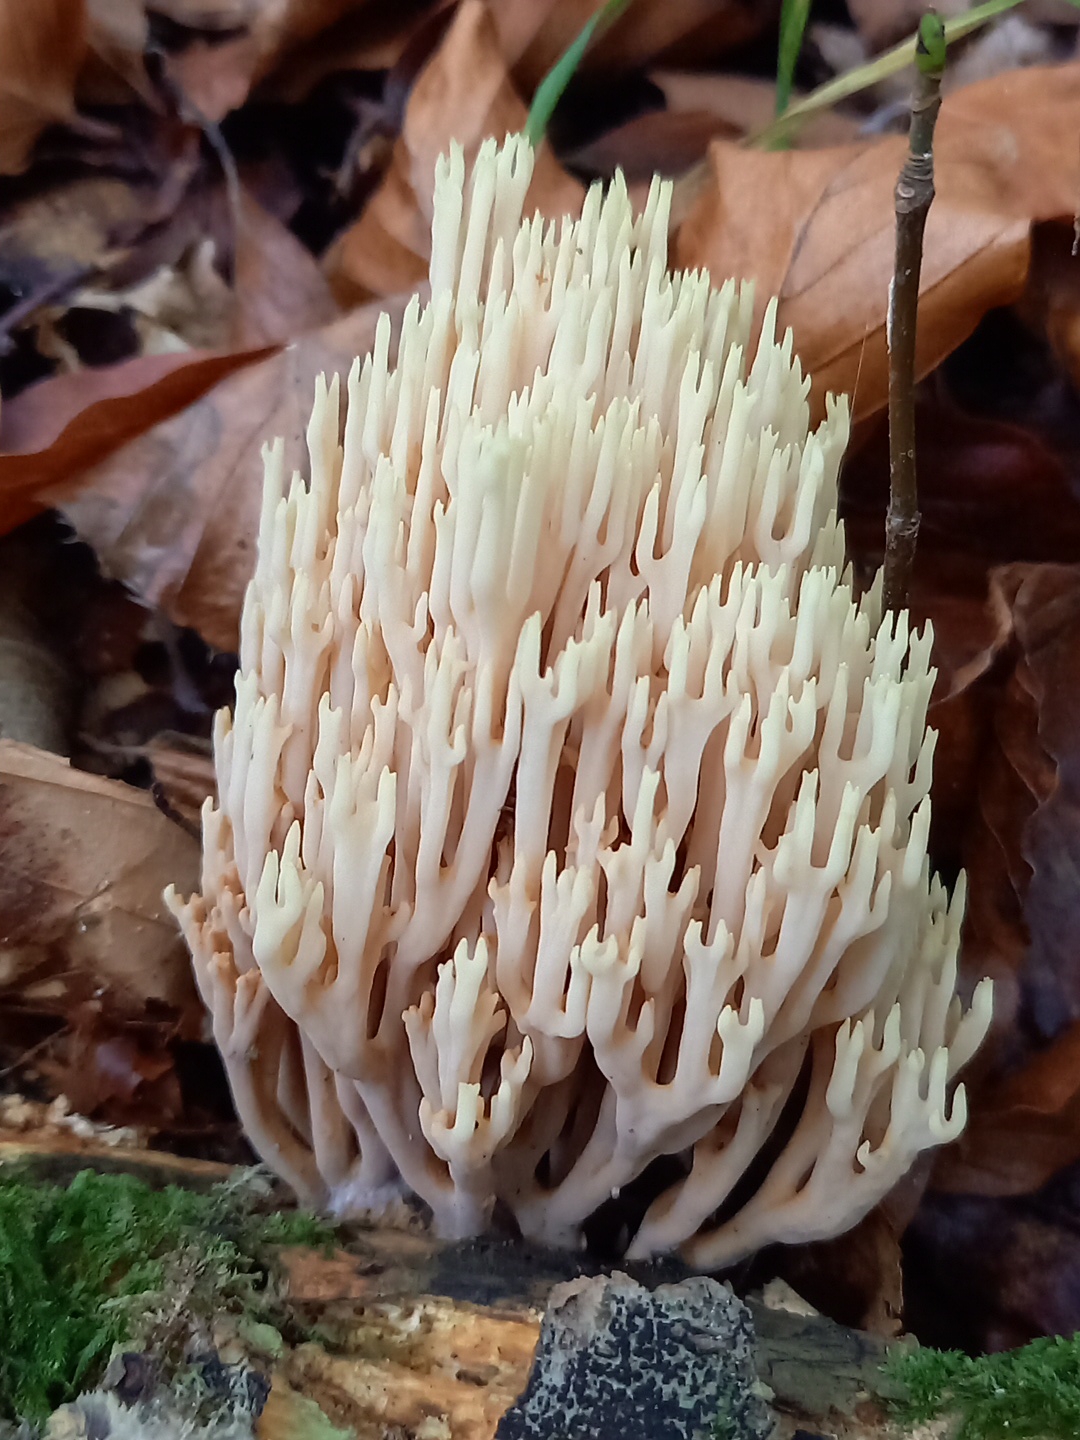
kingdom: Fungi
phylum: Basidiomycota
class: Agaricomycetes
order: Gomphales
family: Gomphaceae
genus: Ramaria
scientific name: Ramaria stricta
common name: rank koralsvamp
